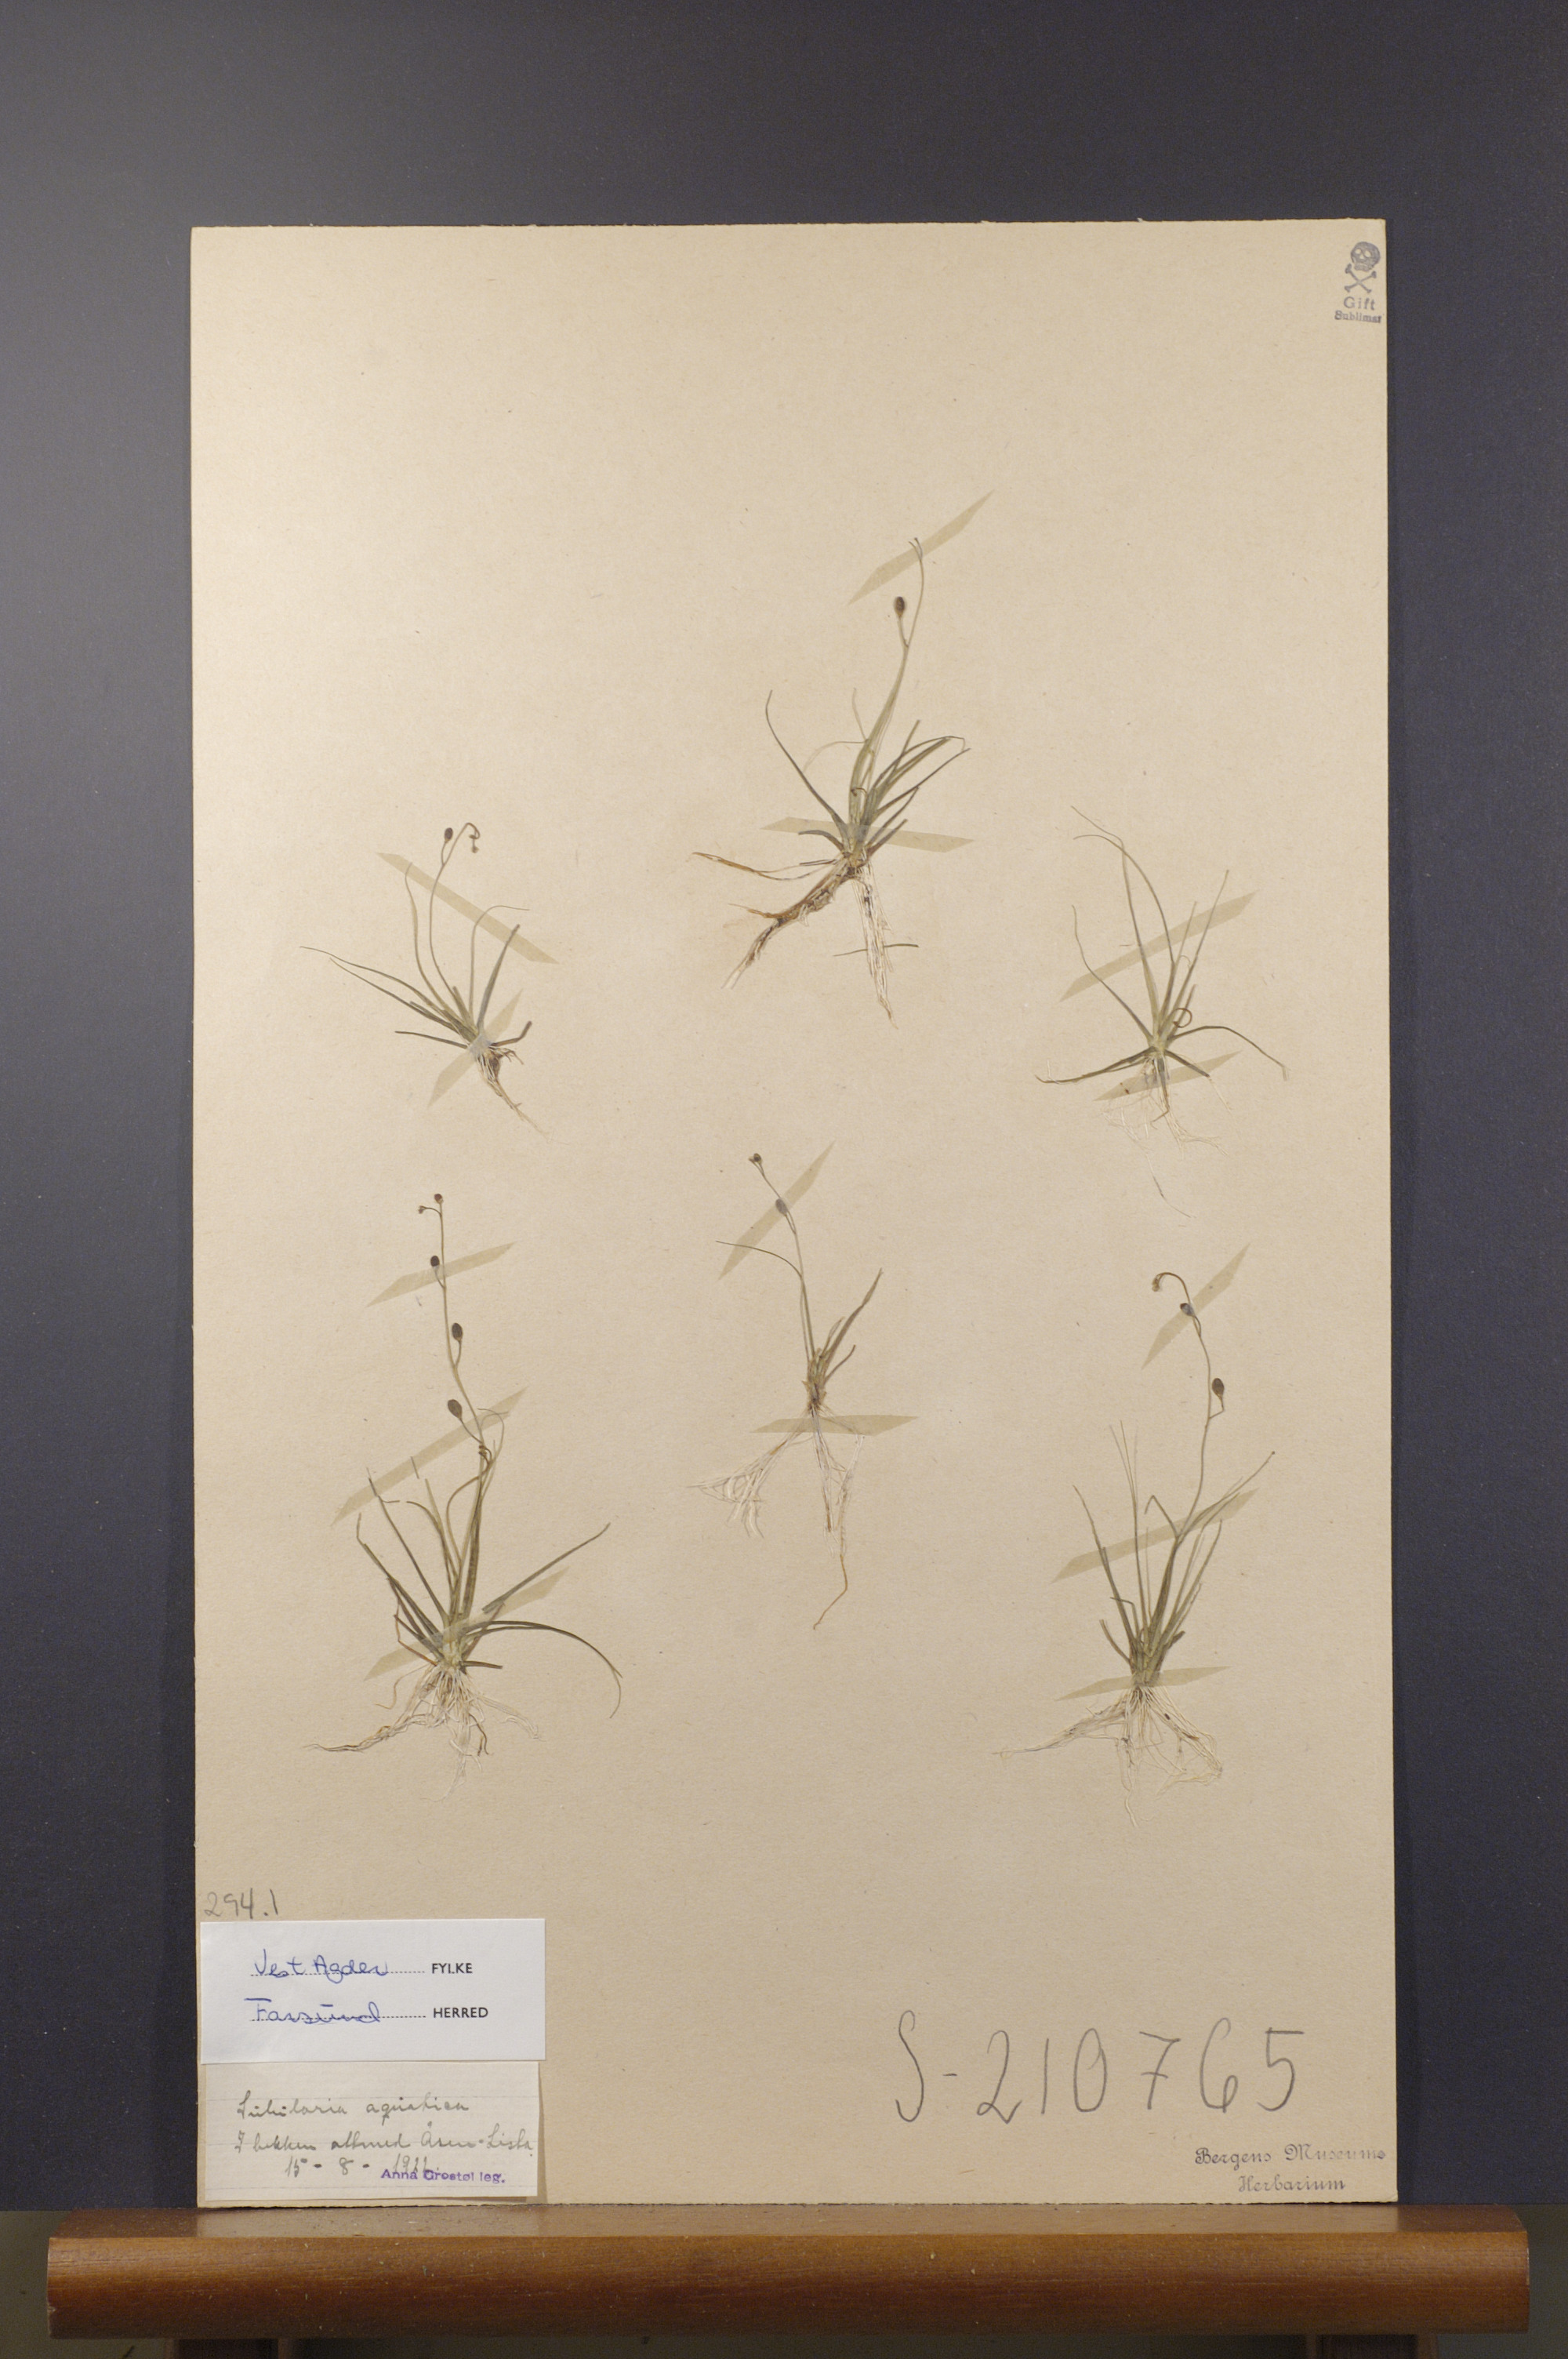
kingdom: Plantae
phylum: Tracheophyta
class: Magnoliopsida
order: Brassicales
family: Brassicaceae
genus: Subularia
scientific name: Subularia aquatica
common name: Awlwort
